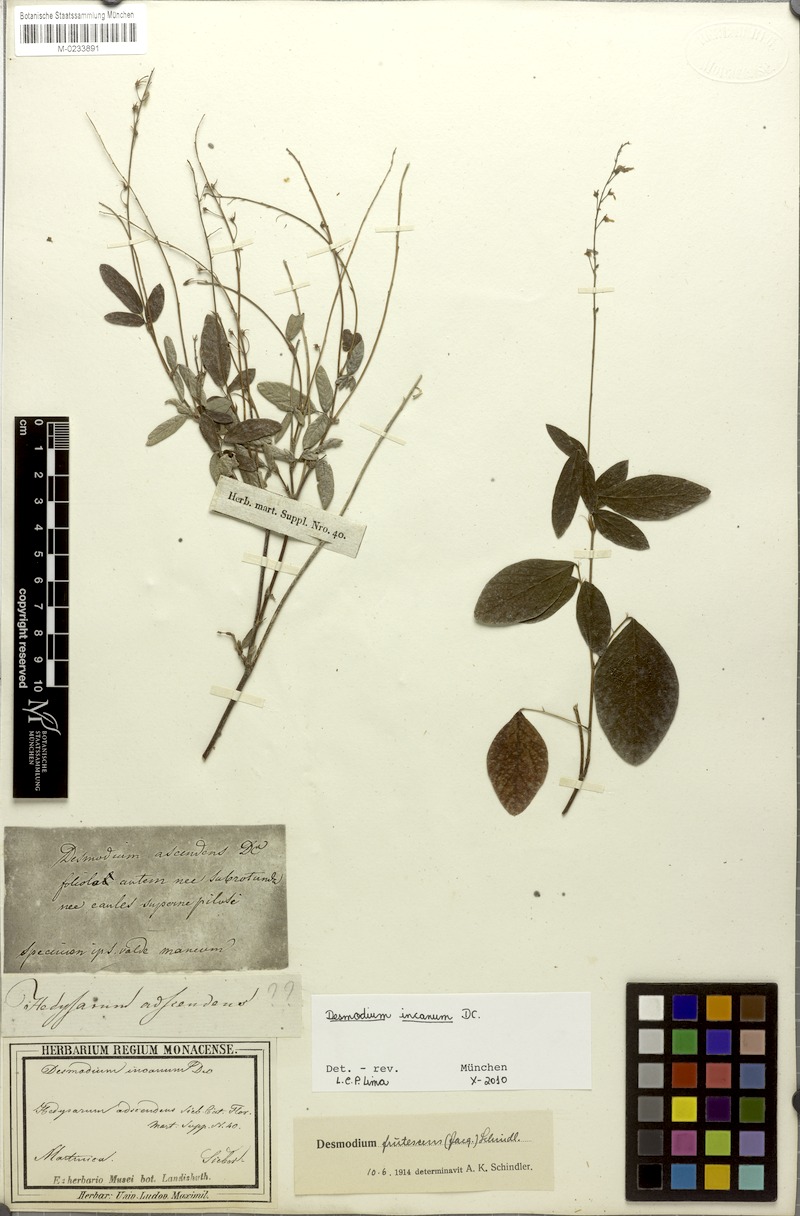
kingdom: Plantae
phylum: Tracheophyta
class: Magnoliopsida
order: Fabales
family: Fabaceae
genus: Desmodium
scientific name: Desmodium incanum
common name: Tickclover
